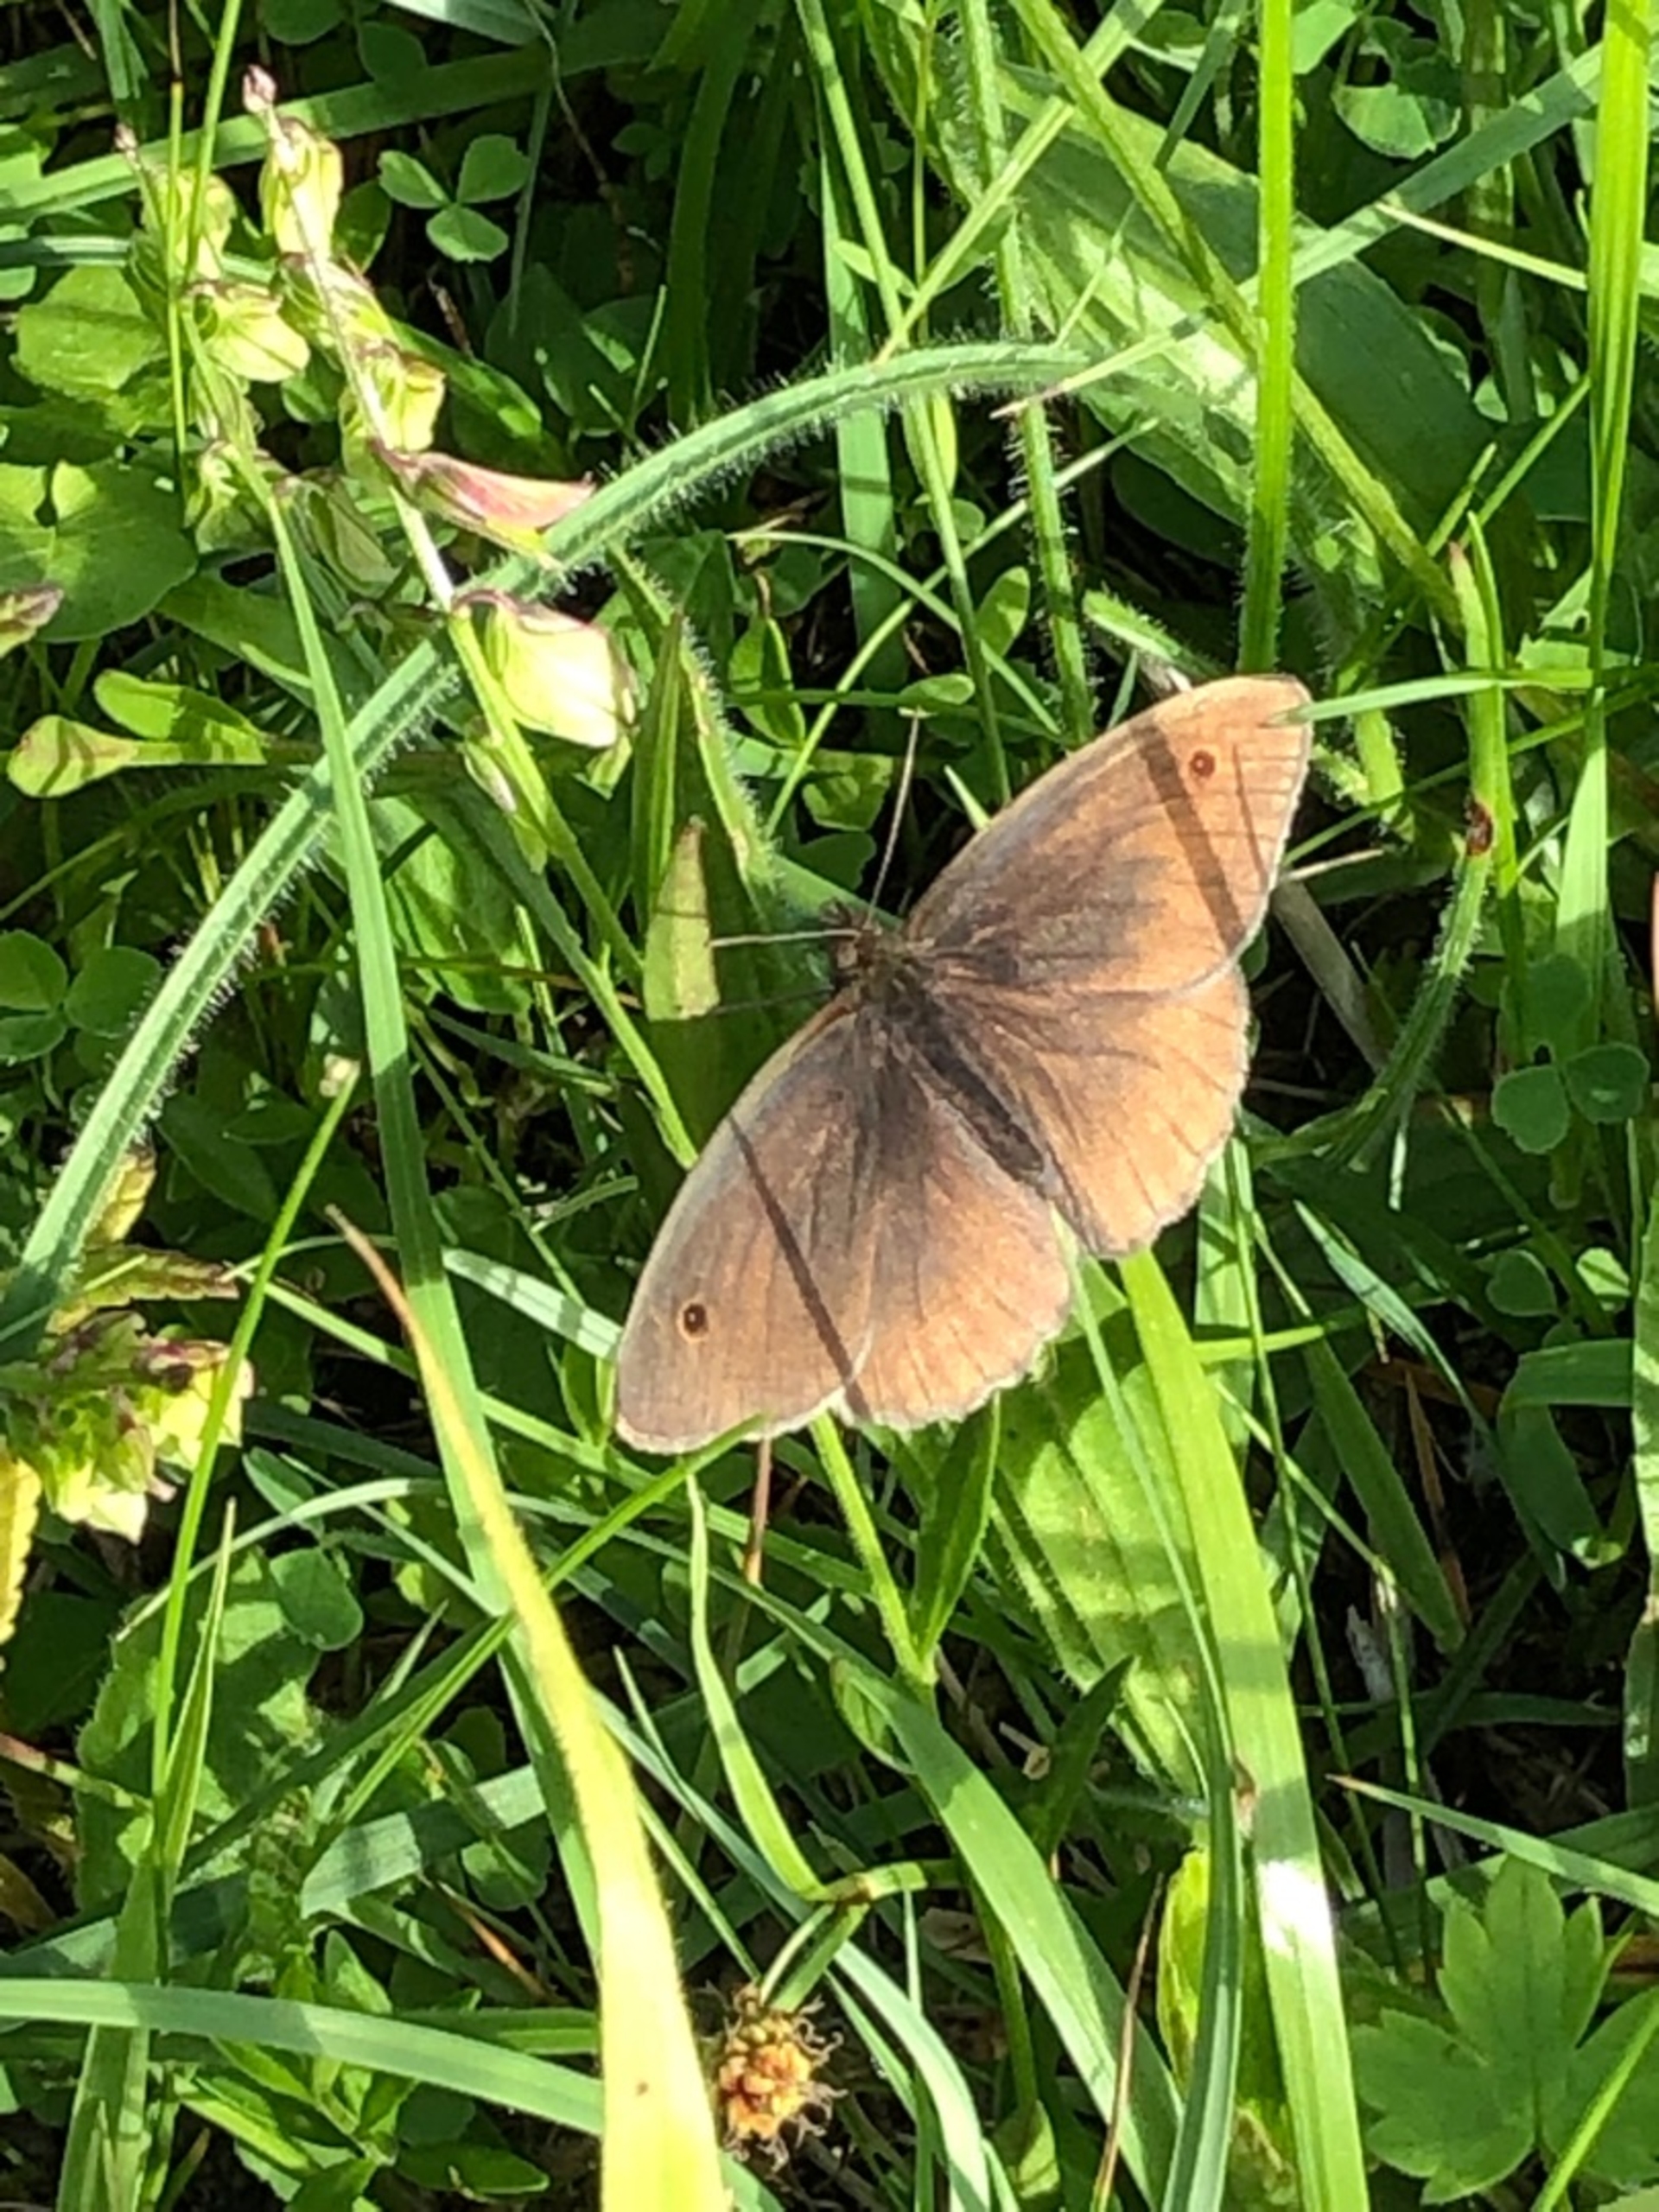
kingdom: Animalia
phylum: Arthropoda
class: Insecta
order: Lepidoptera
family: Nymphalidae
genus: Maniola
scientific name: Maniola jurtina
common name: Græsrandøje
